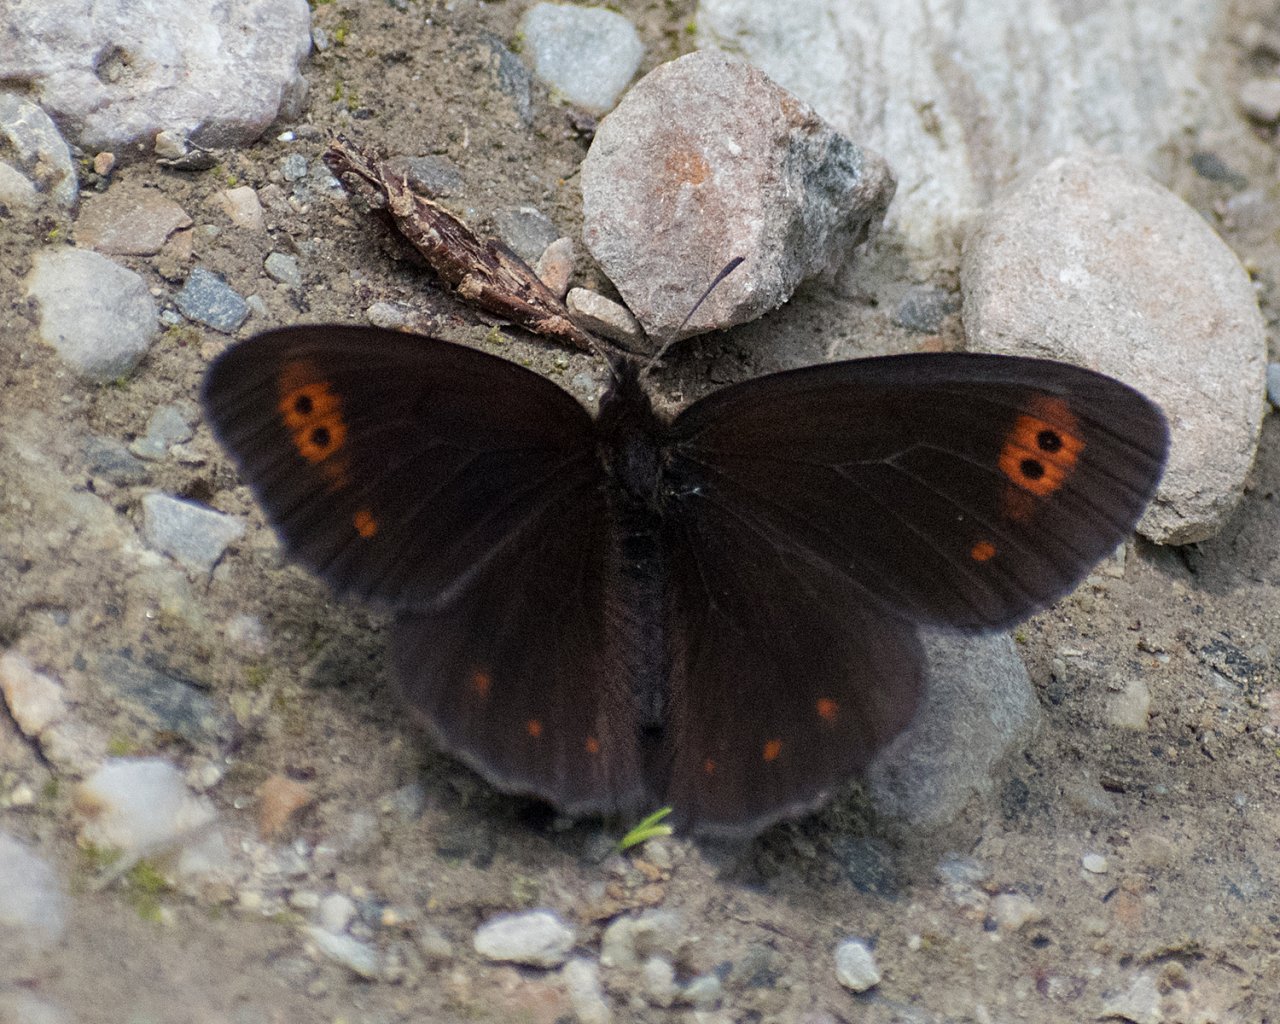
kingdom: Animalia
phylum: Arthropoda
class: Insecta
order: Lepidoptera
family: Nymphalidae
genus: Erebia
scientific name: Erebia epipsodea
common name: Common Alpine
